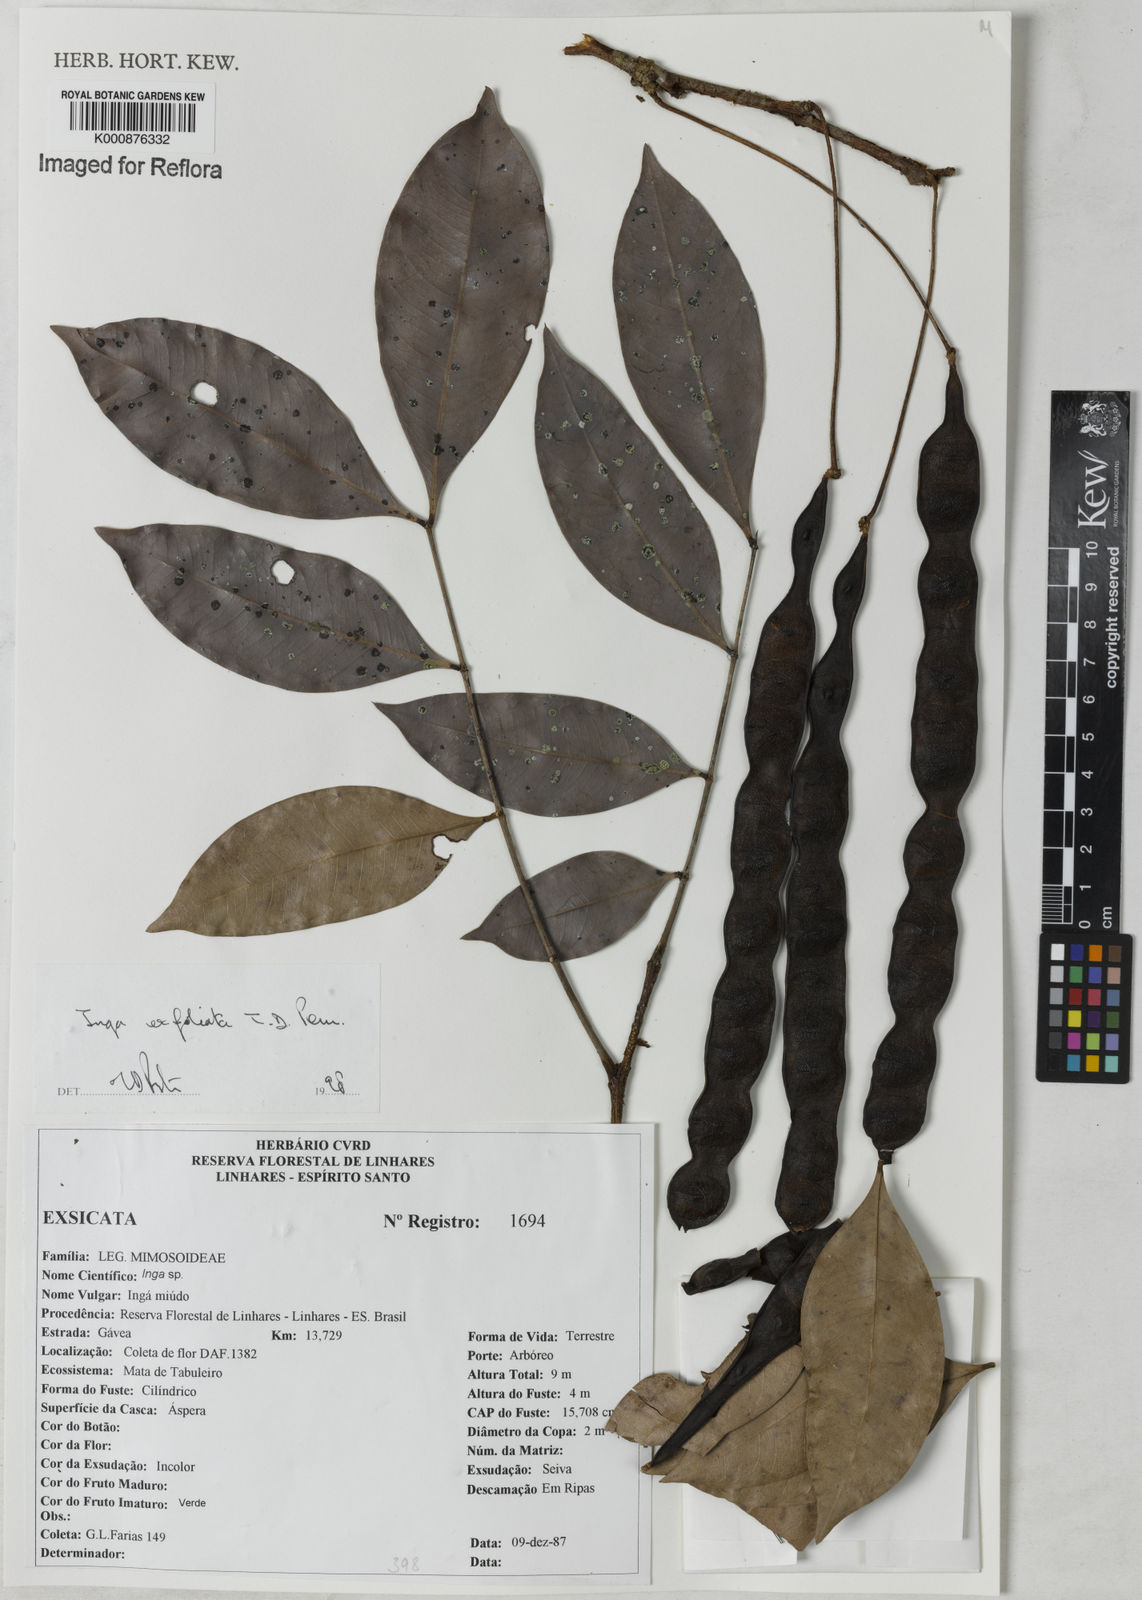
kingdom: Plantae
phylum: Tracheophyta
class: Magnoliopsida
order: Fabales
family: Fabaceae
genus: Inga
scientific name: Inga
